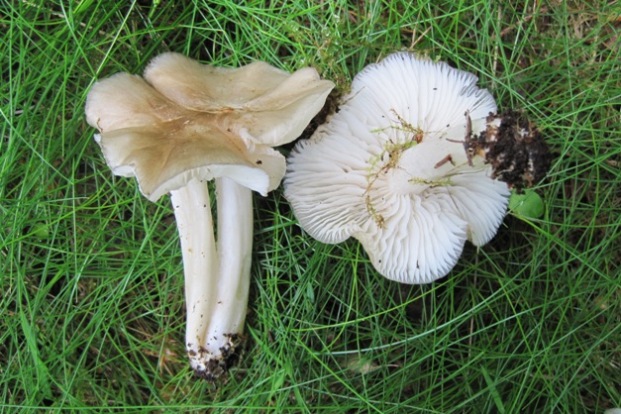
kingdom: Fungi
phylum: Basidiomycota
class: Agaricomycetes
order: Agaricales
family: Tricholomataceae
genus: Megacollybia
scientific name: Megacollybia platyphylla
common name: bredbladet væbnerhat
